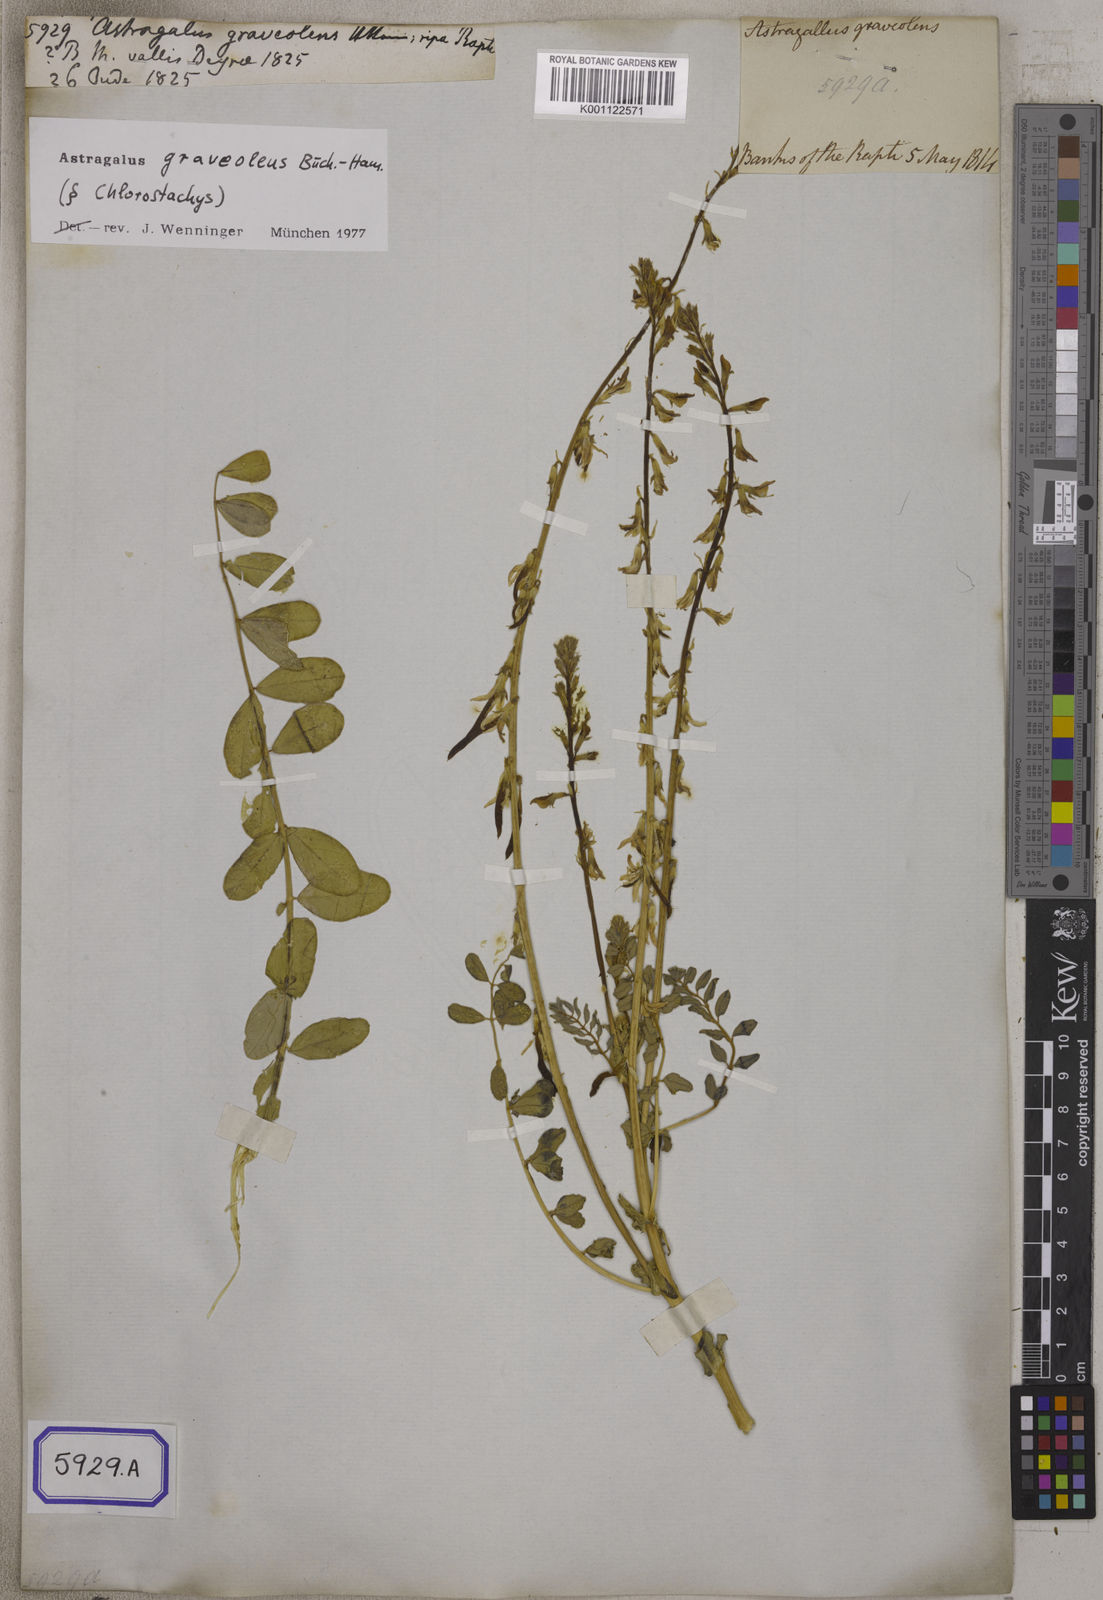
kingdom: Plantae
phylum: Tracheophyta
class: Magnoliopsida
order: Fabales
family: Fabaceae
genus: Astragalus
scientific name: Astragalus
